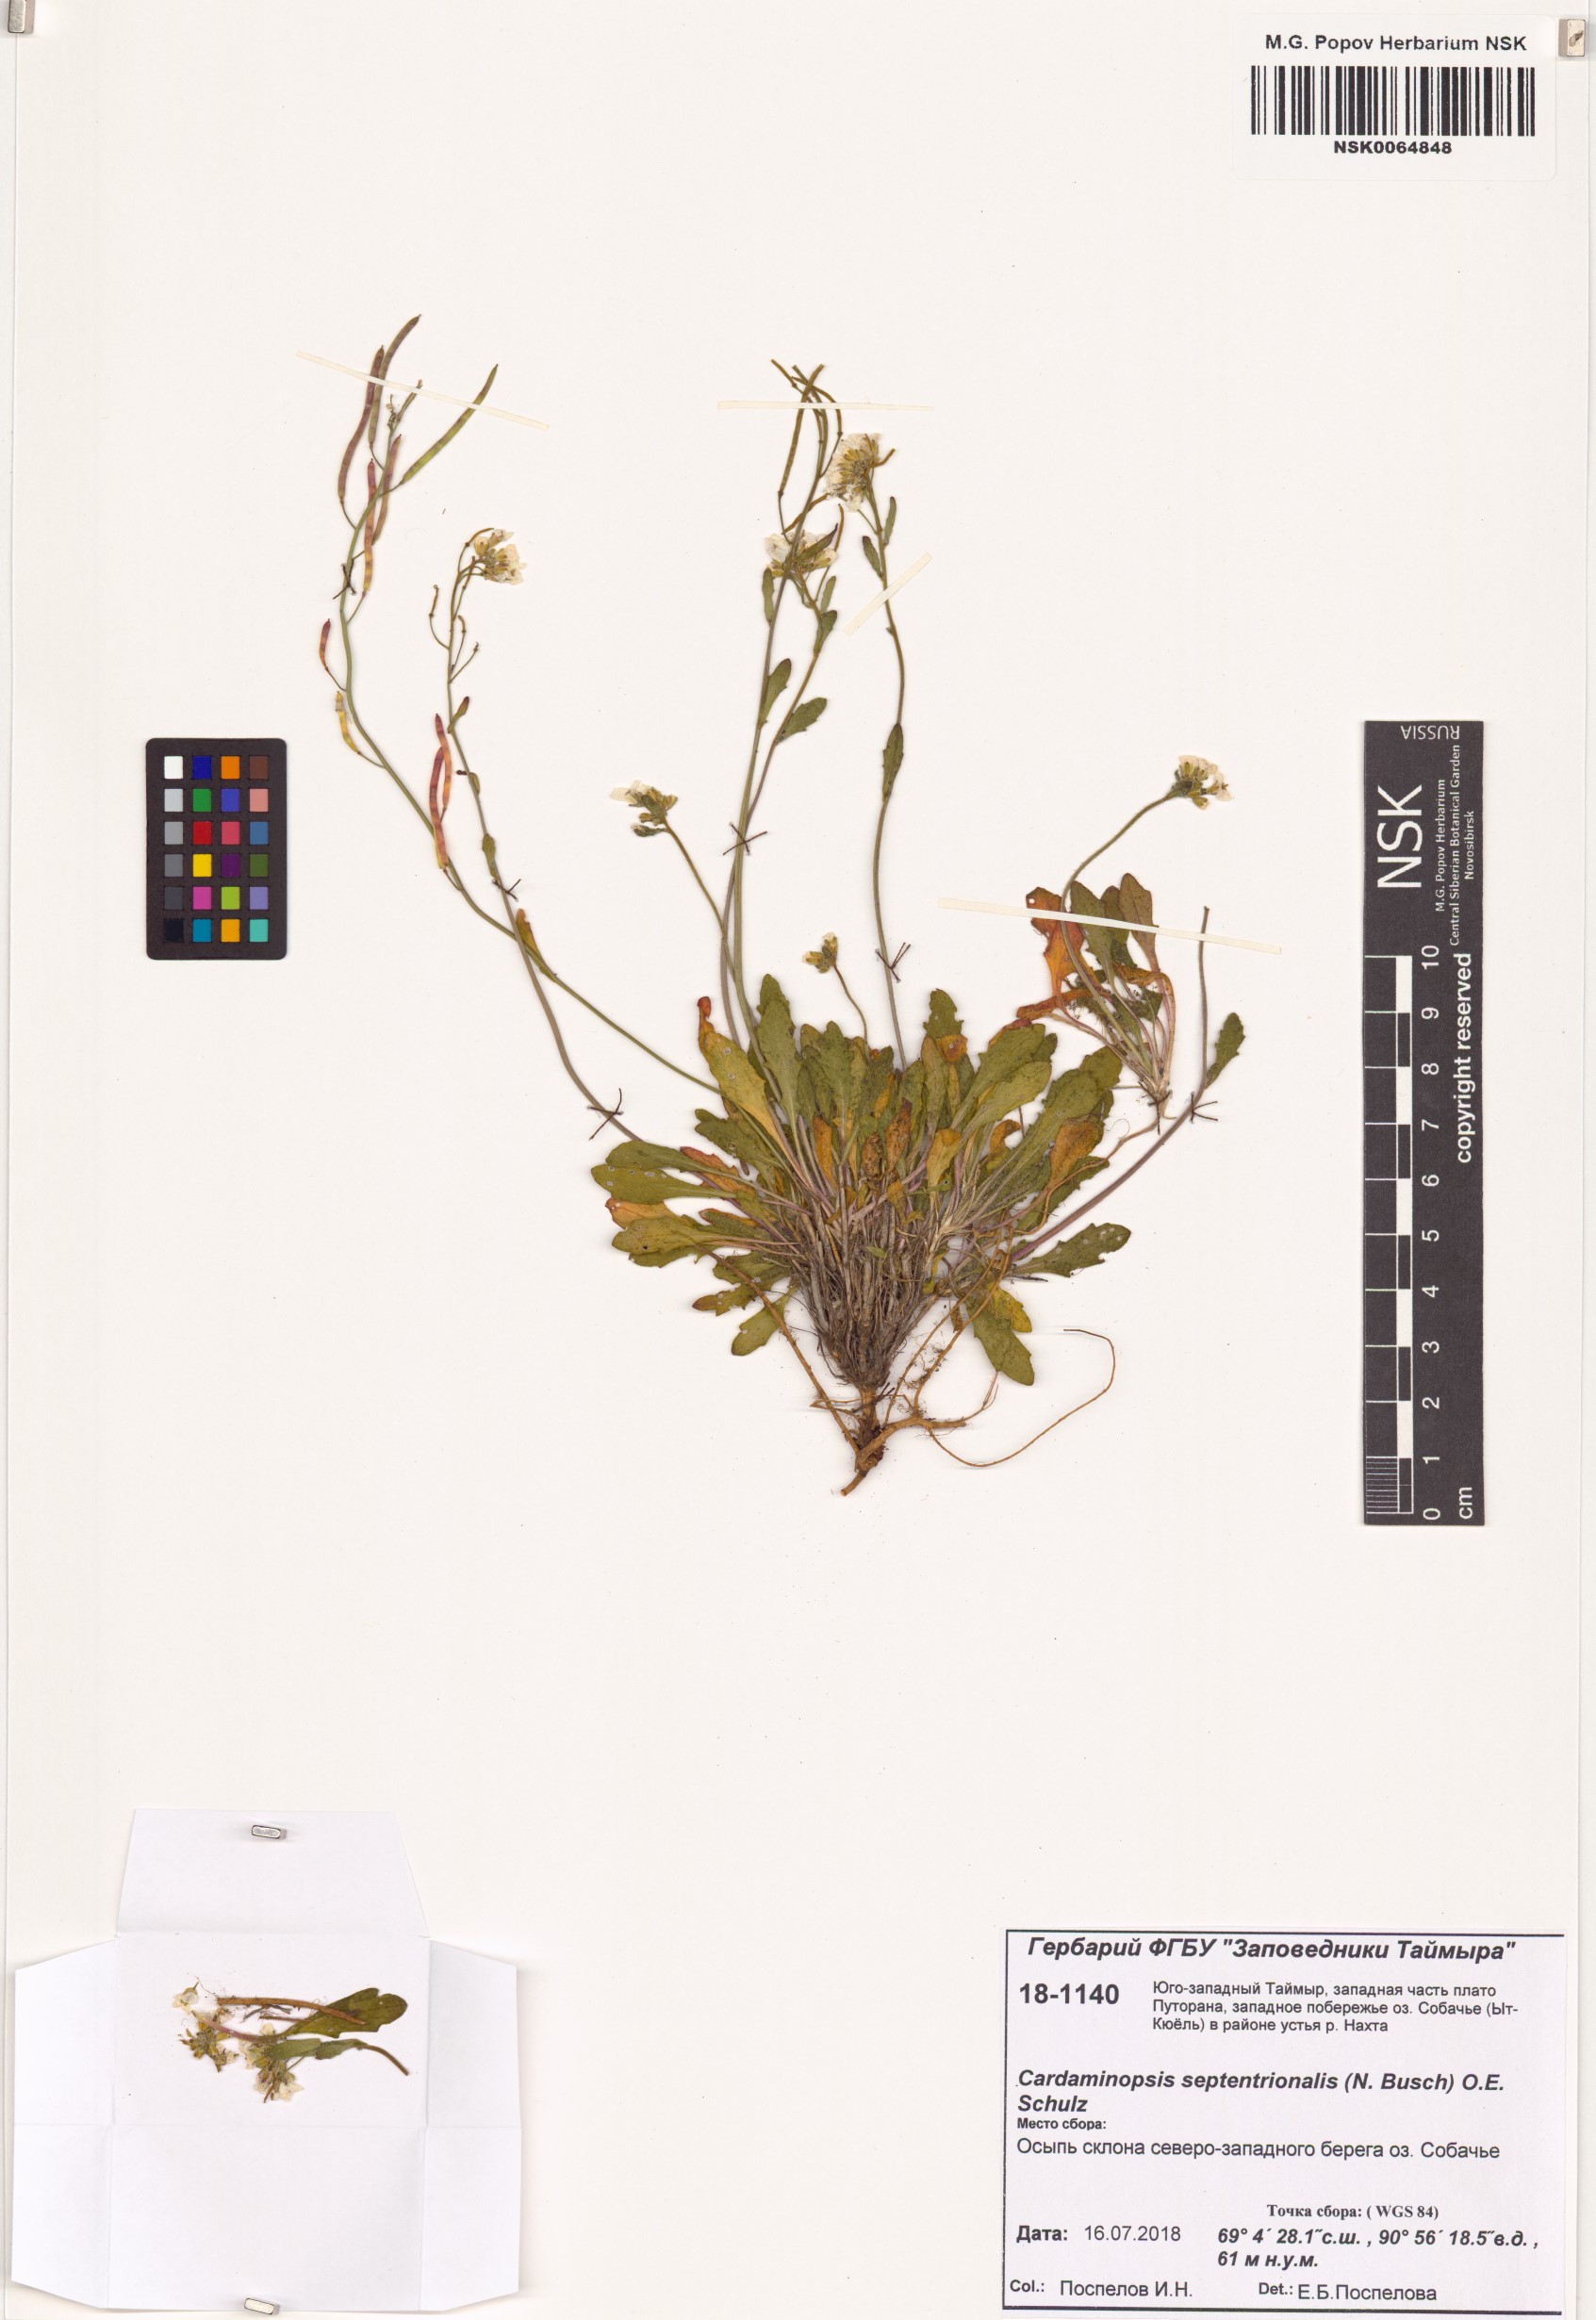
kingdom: Plantae
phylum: Tracheophyta
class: Magnoliopsida
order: Brassicales
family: Brassicaceae
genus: Arabidopsis
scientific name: Arabidopsis lyrata
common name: Lyrate rockcress
